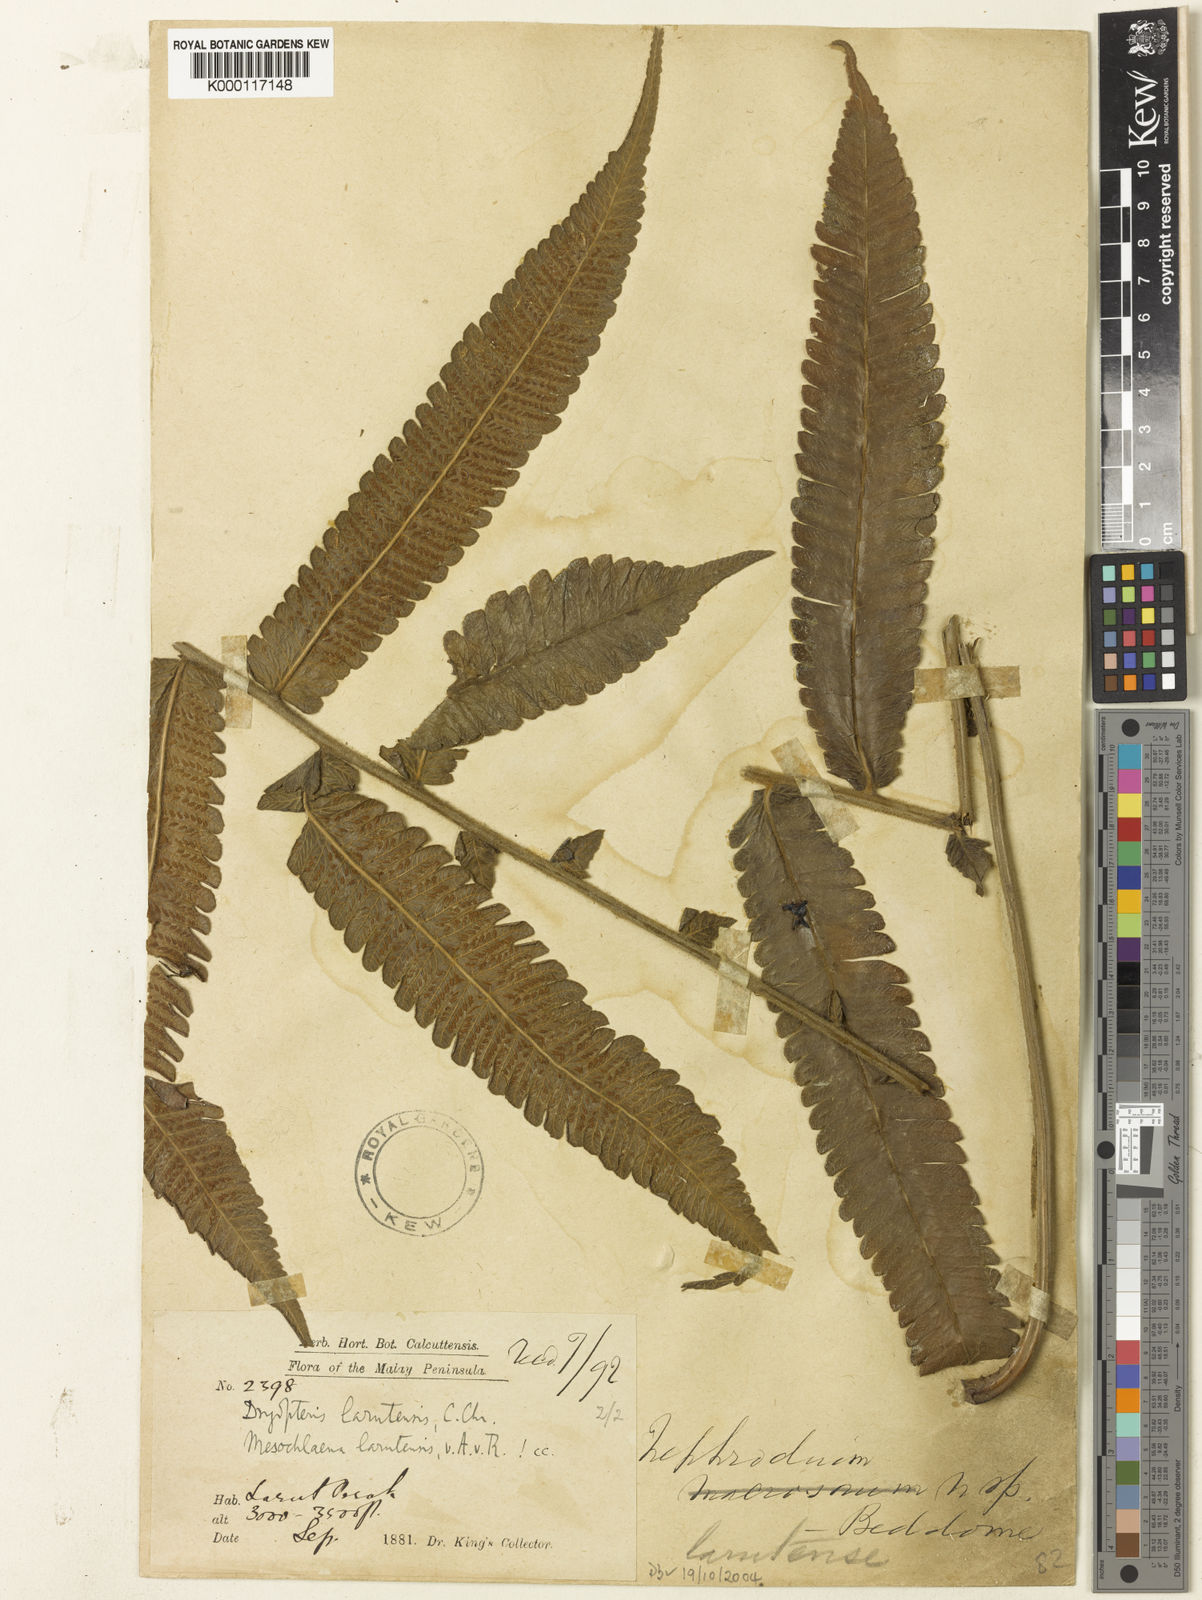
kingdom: Plantae
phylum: Tracheophyta
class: Polypodiopsida
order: Polypodiales
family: Thelypteridaceae
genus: Sphaerostephanos
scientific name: Sphaerostephanos larutensis
